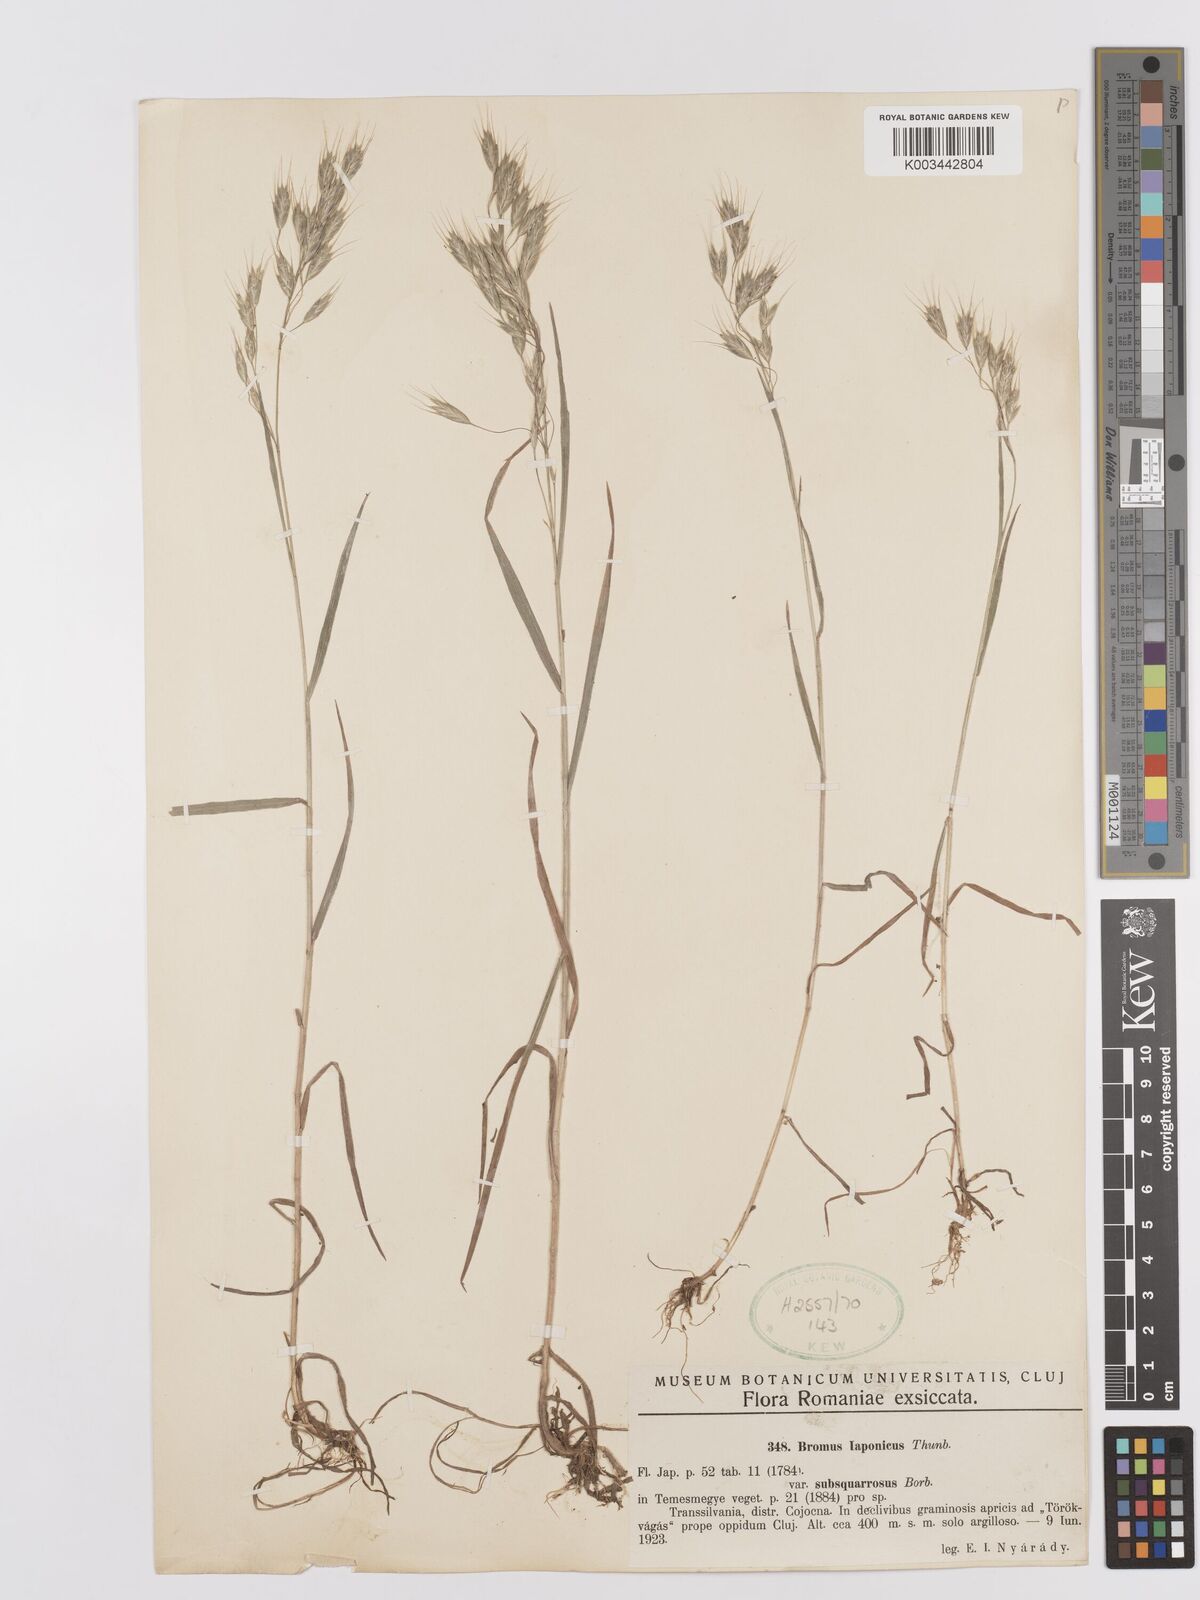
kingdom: Plantae
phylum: Tracheophyta
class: Liliopsida
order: Poales
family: Poaceae
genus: Bromus
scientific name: Bromus japonicus
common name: Japanese brome
